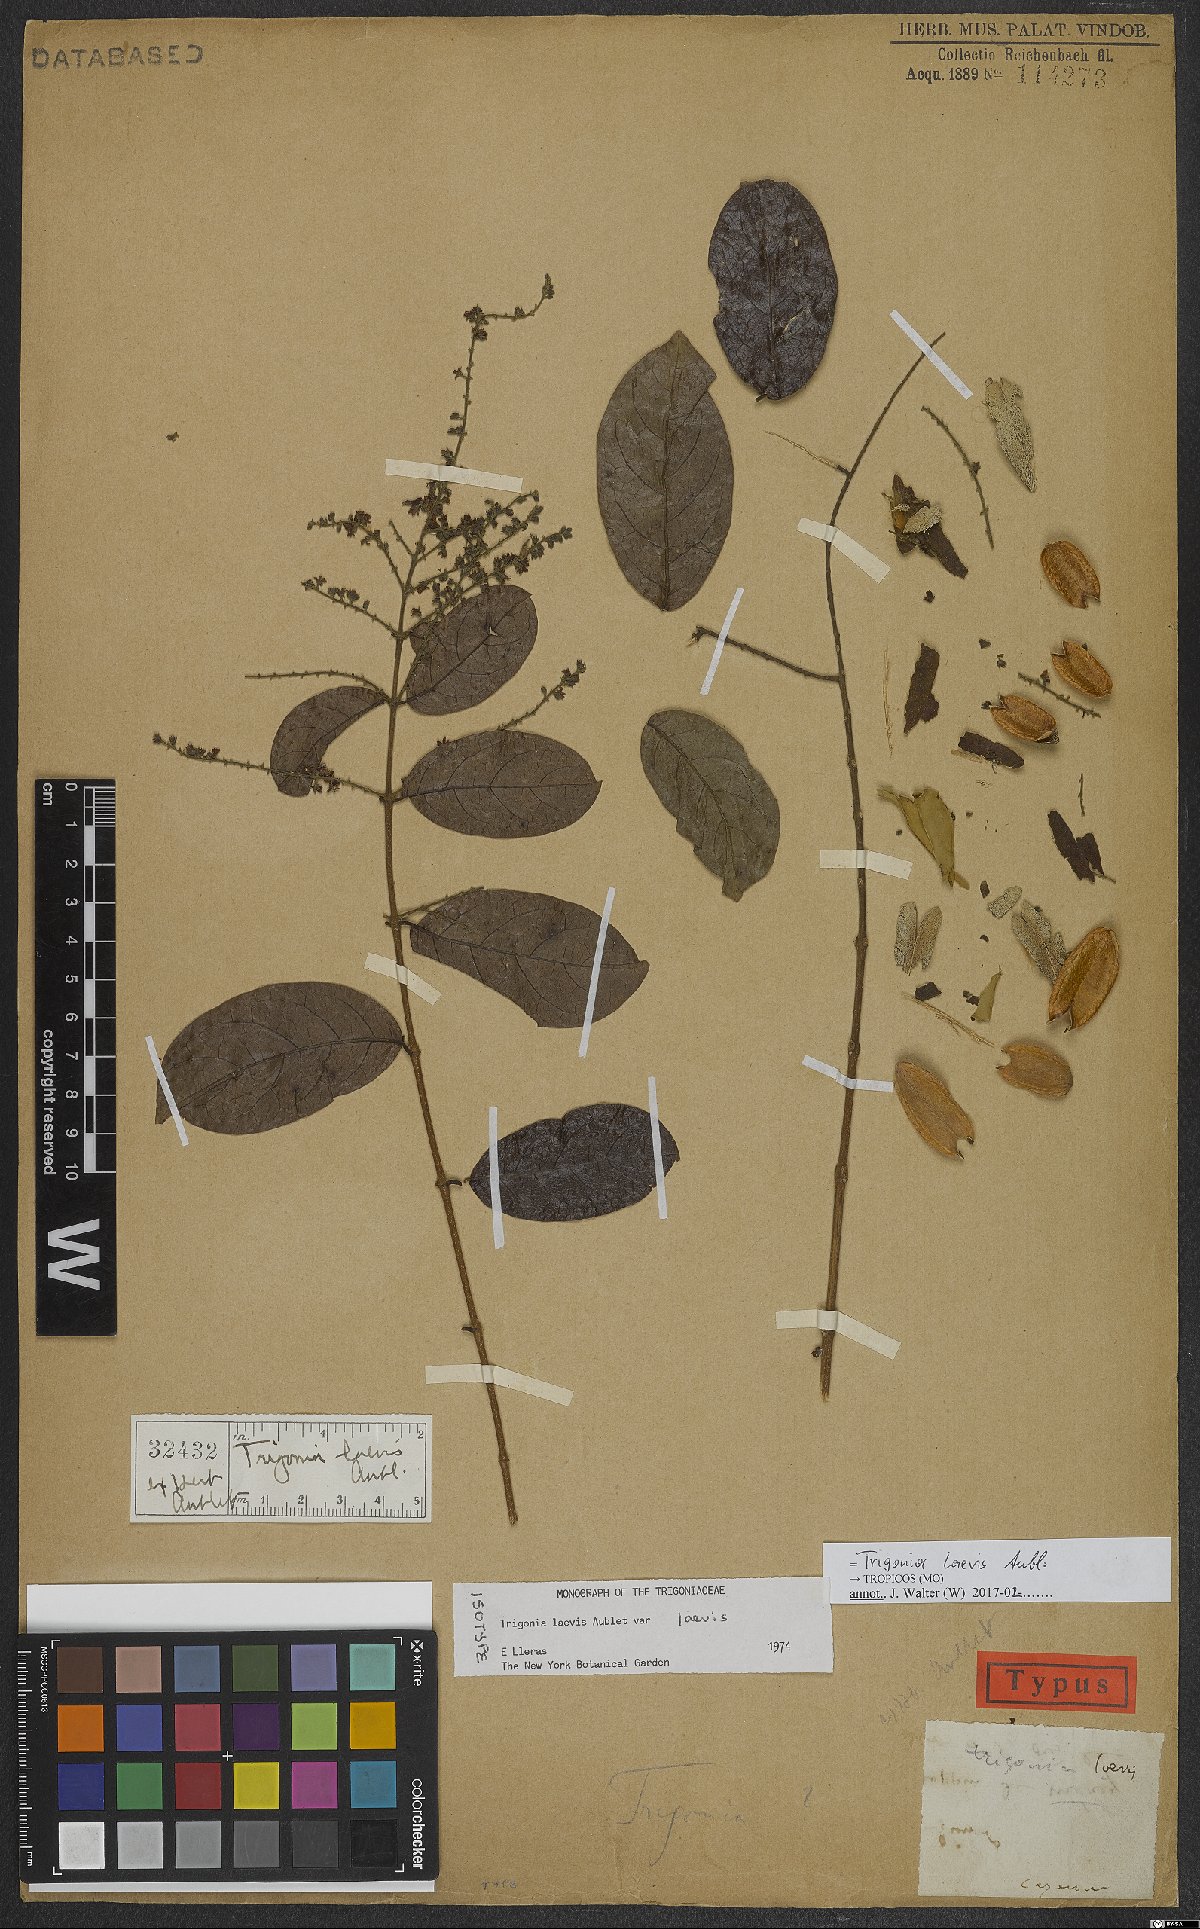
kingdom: Plantae
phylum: Tracheophyta
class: Magnoliopsida
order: Malpighiales
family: Trigoniaceae
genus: Trigonia
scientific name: Trigonia laevis
